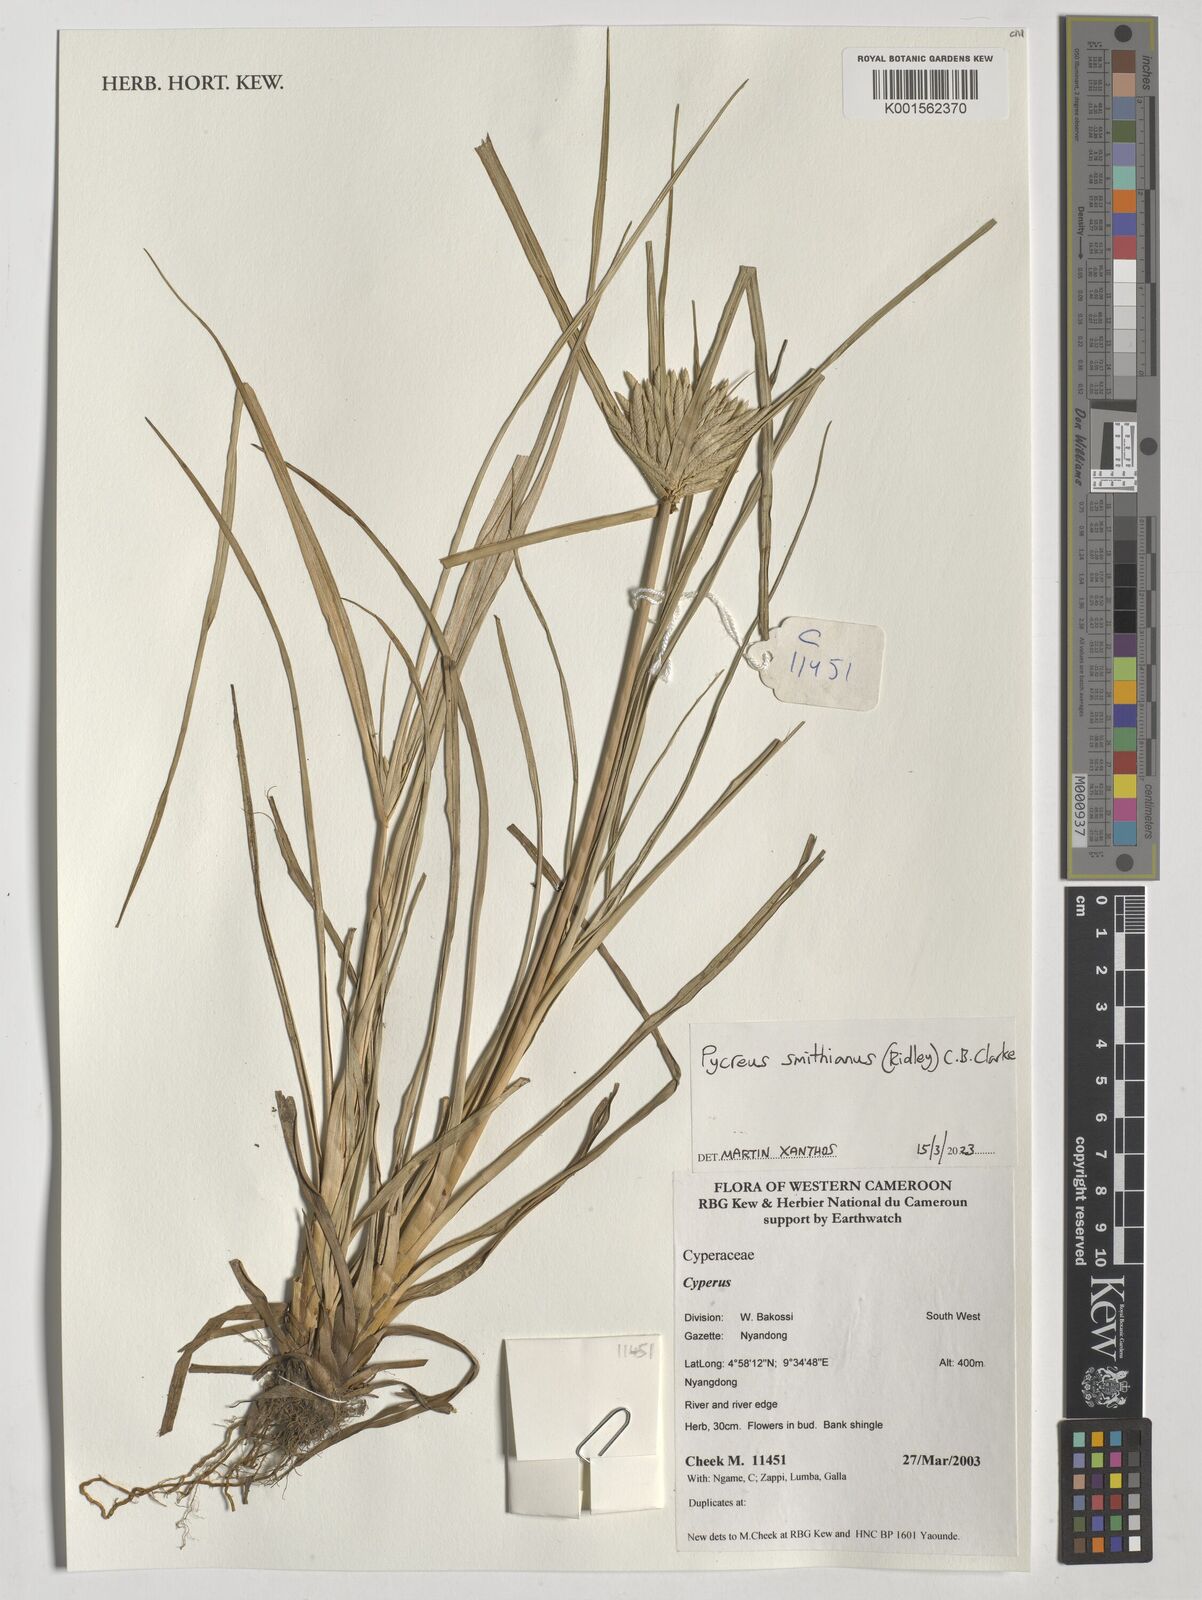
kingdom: Plantae
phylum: Tracheophyta
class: Liliopsida
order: Poales
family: Cyperaceae
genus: Cyperus
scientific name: Cyperus smithianus
